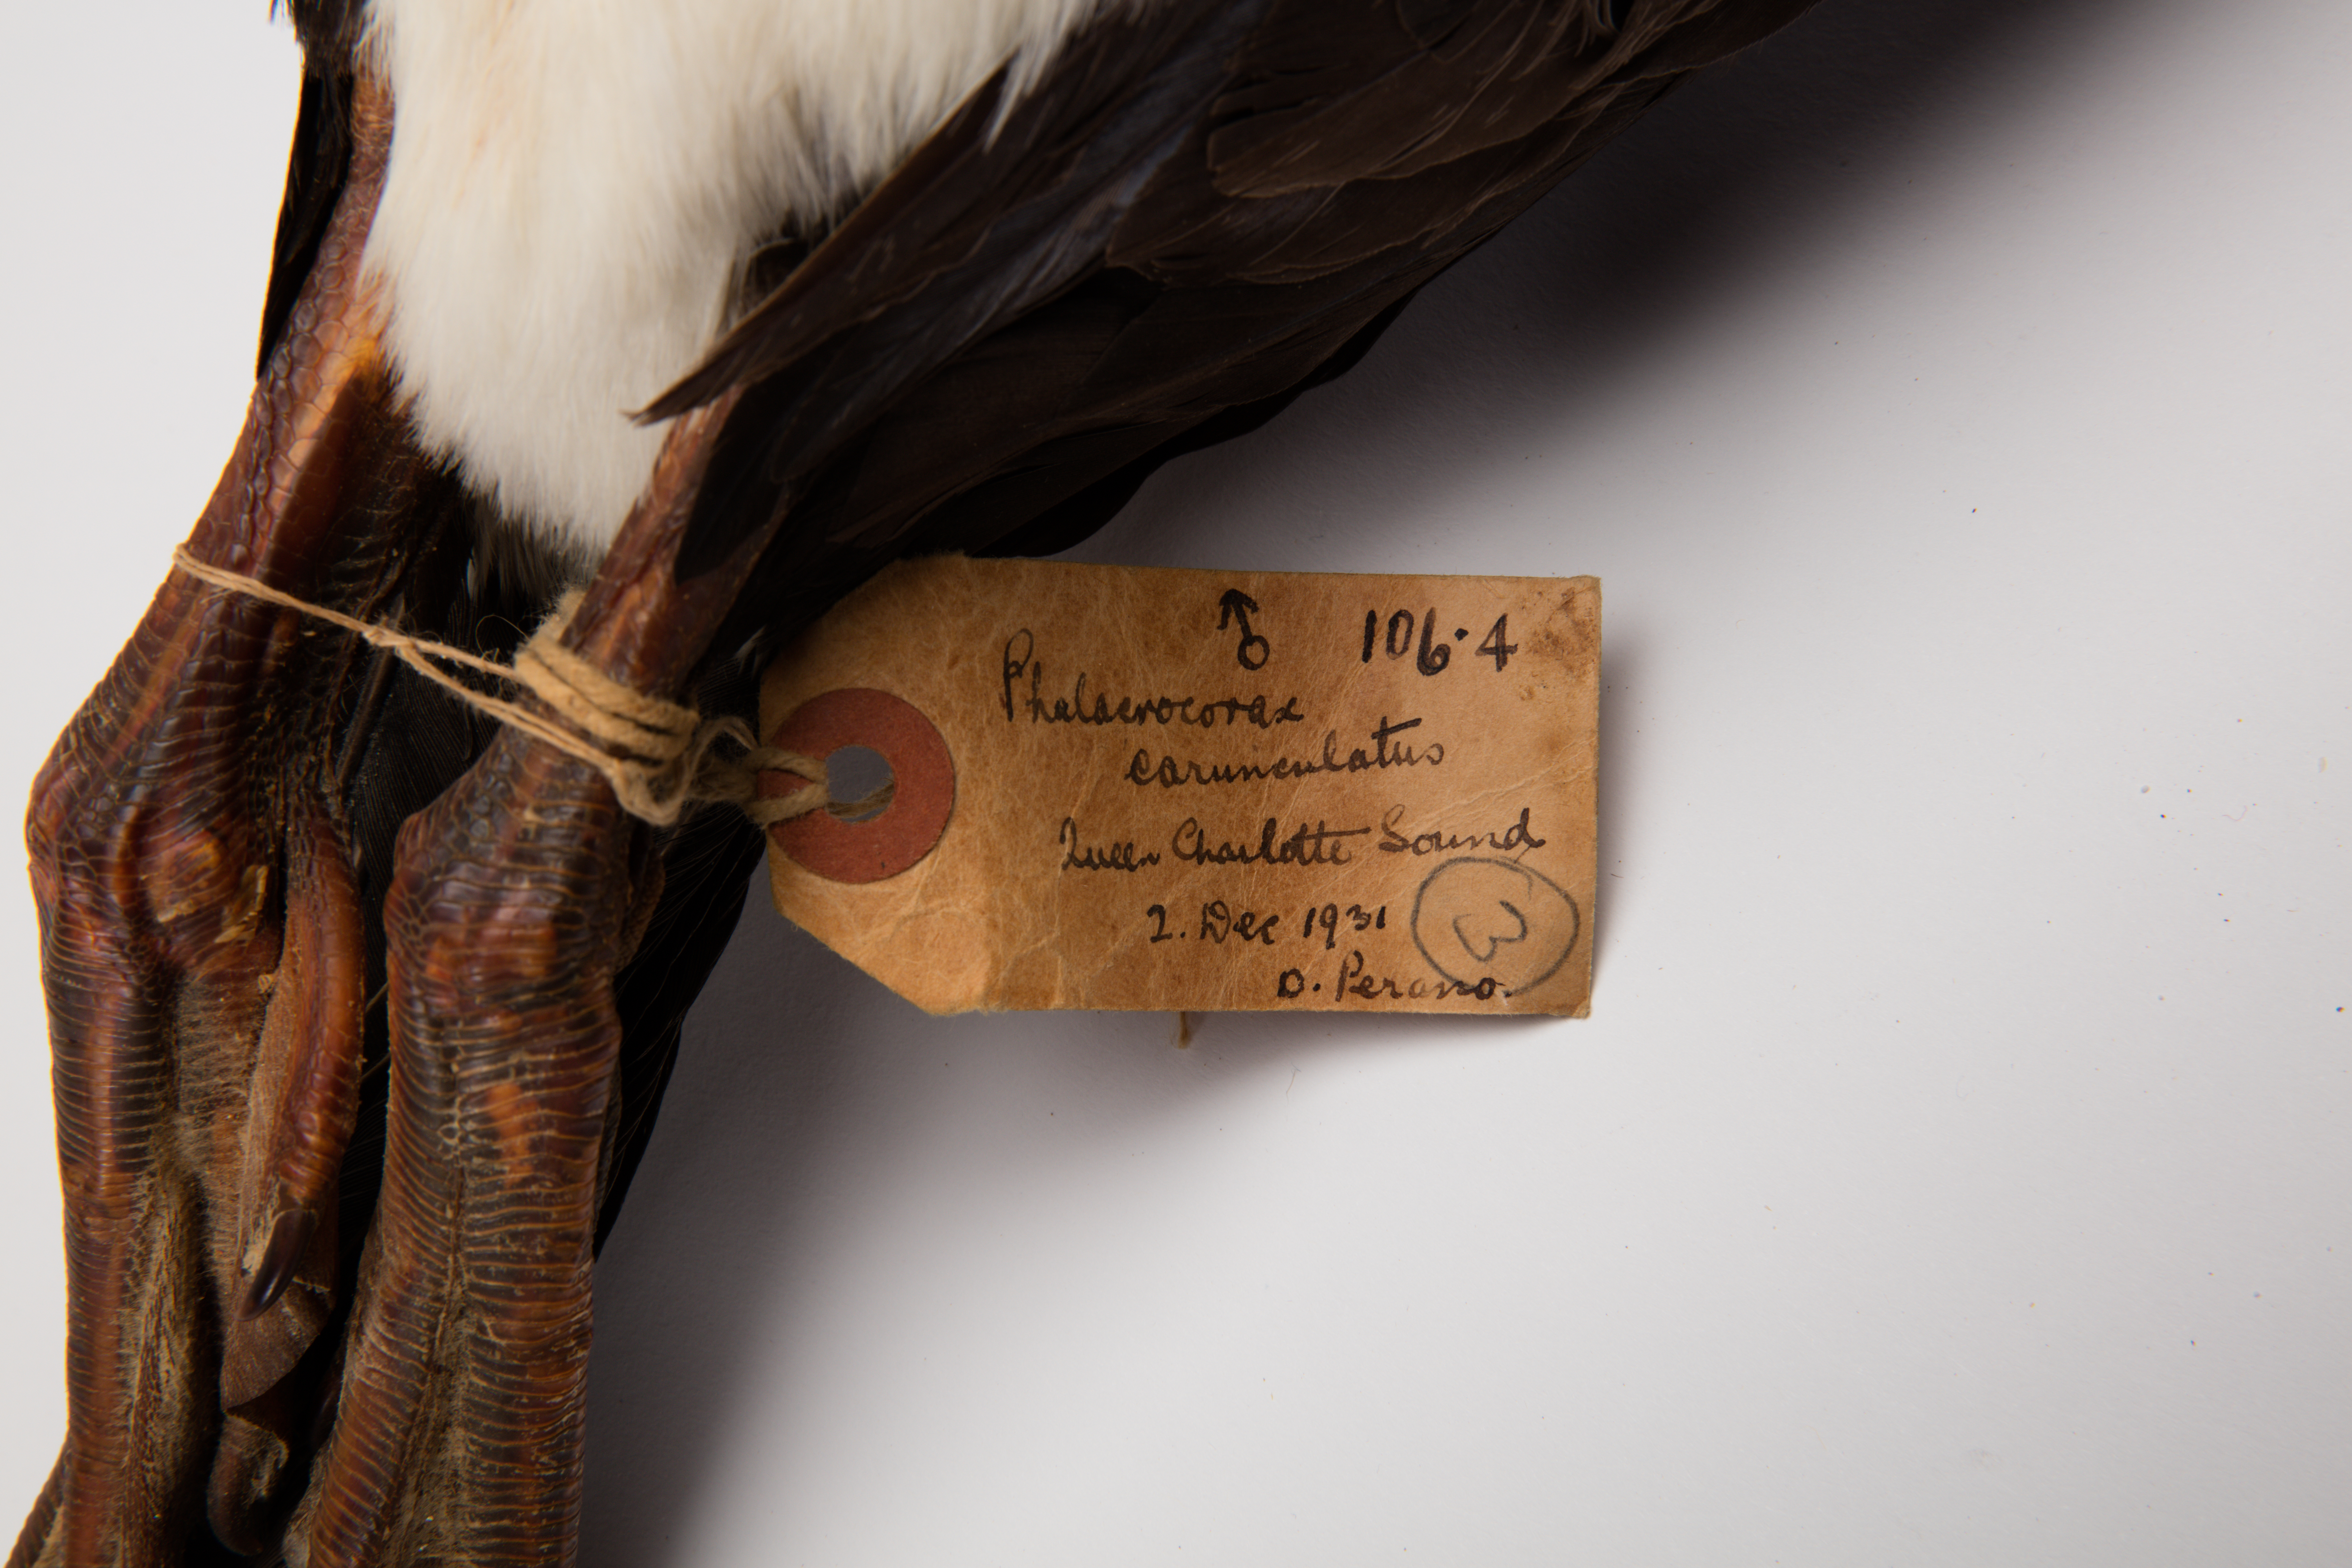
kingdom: Animalia
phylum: Chordata
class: Aves
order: Suliformes
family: Phalacrocoracidae
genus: Leucocarbo
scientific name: Leucocarbo carunculatus
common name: Rough-faced shag
